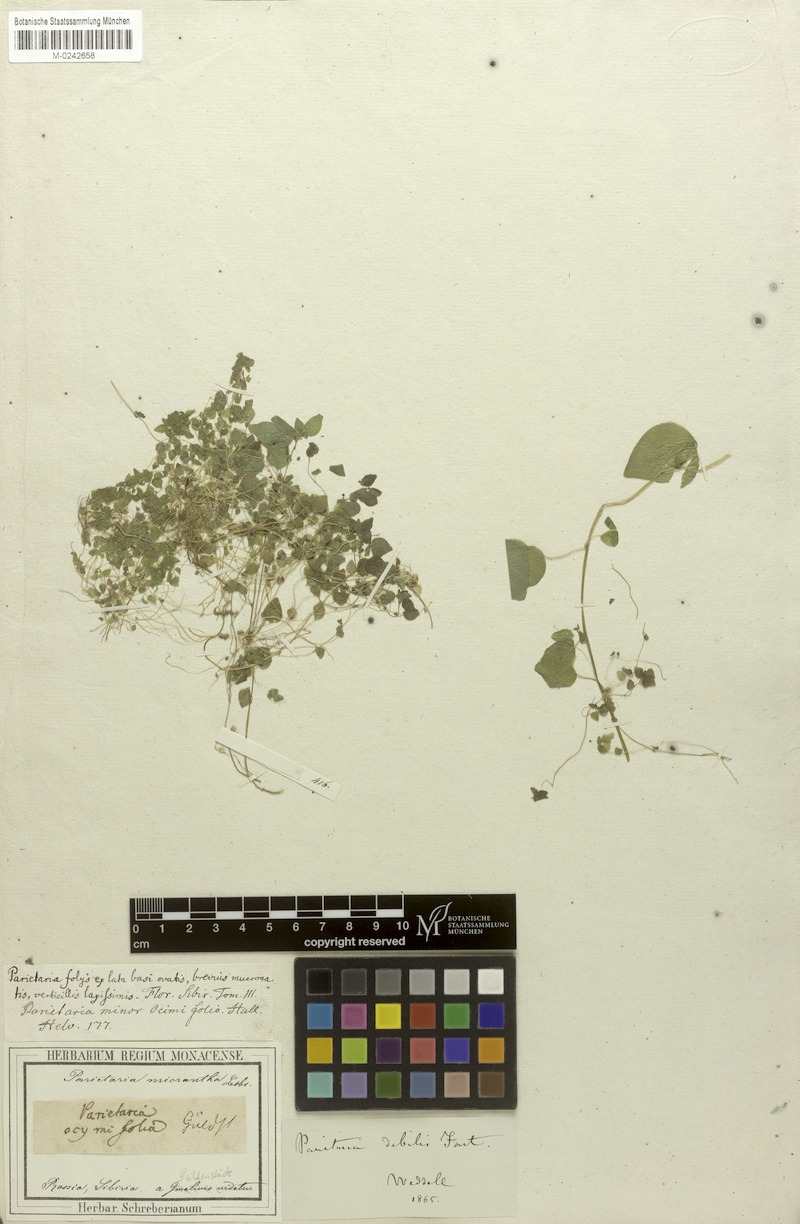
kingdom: Plantae
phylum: Tracheophyta
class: Magnoliopsida
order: Rosales
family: Urticaceae
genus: Parietaria
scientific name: Parietaria debilis
